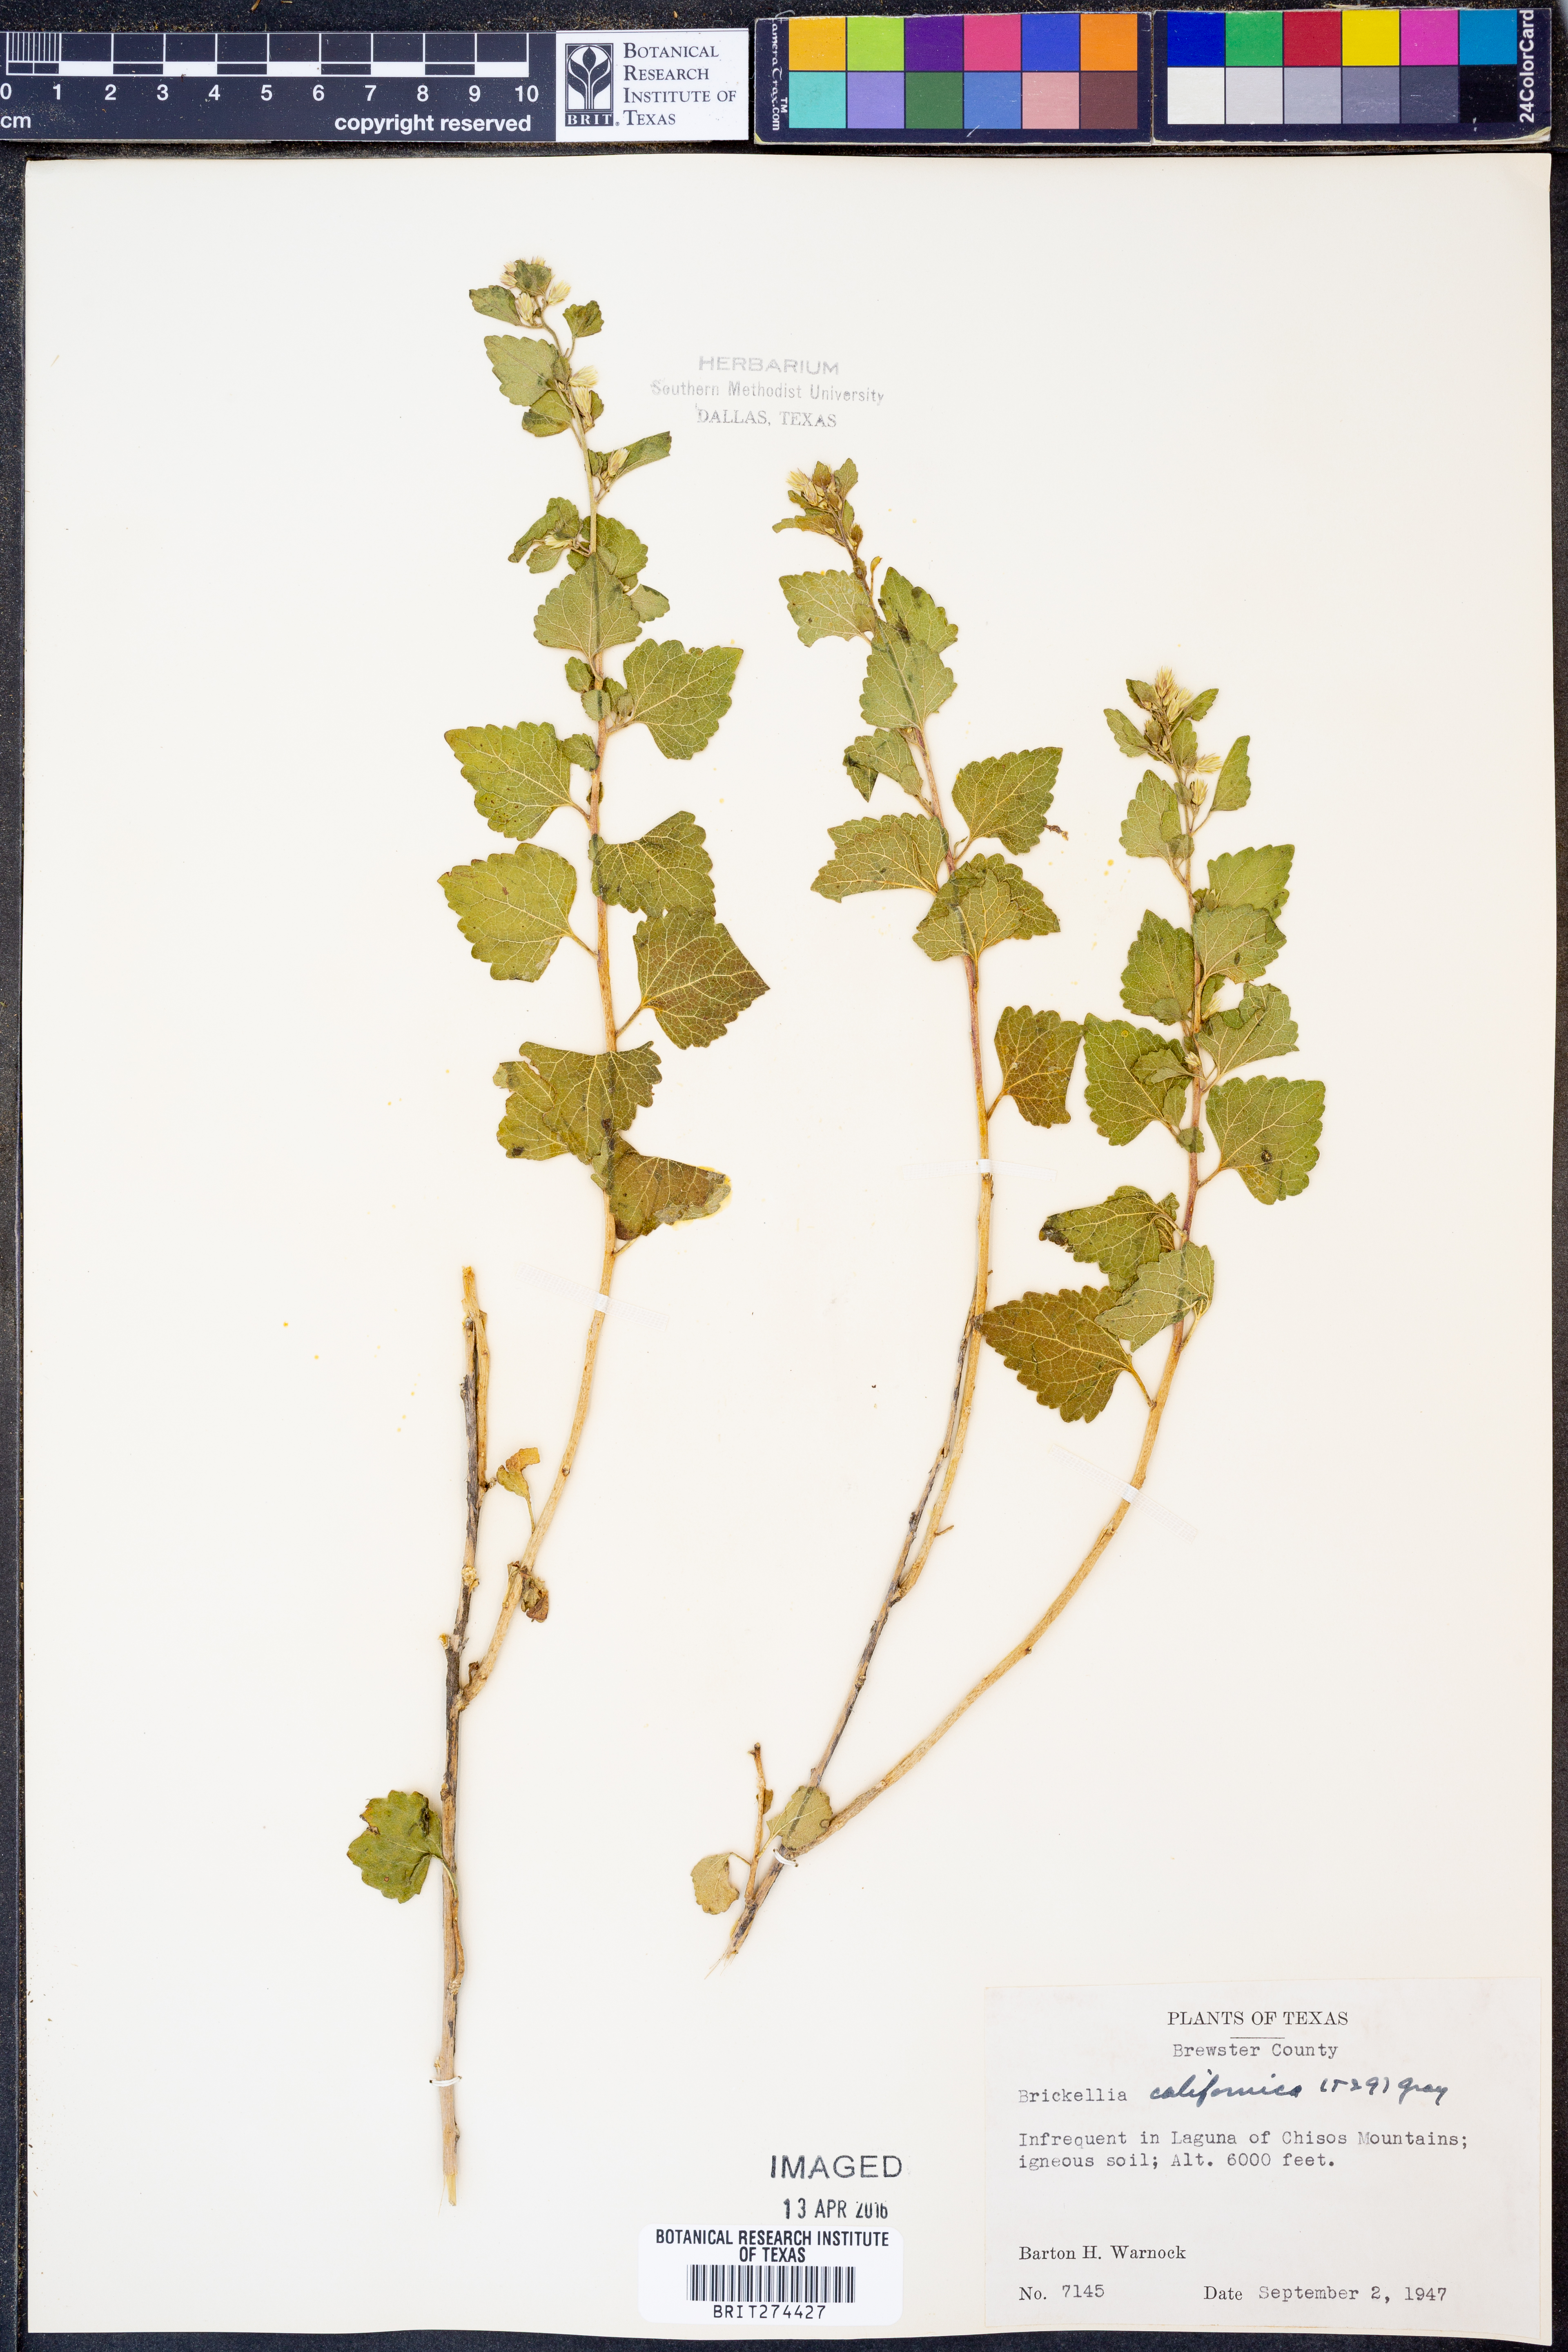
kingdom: Plantae
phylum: Tracheophyta
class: Magnoliopsida
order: Asterales
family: Asteraceae
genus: Brickellia
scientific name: Brickellia californica
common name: California brickellbush
